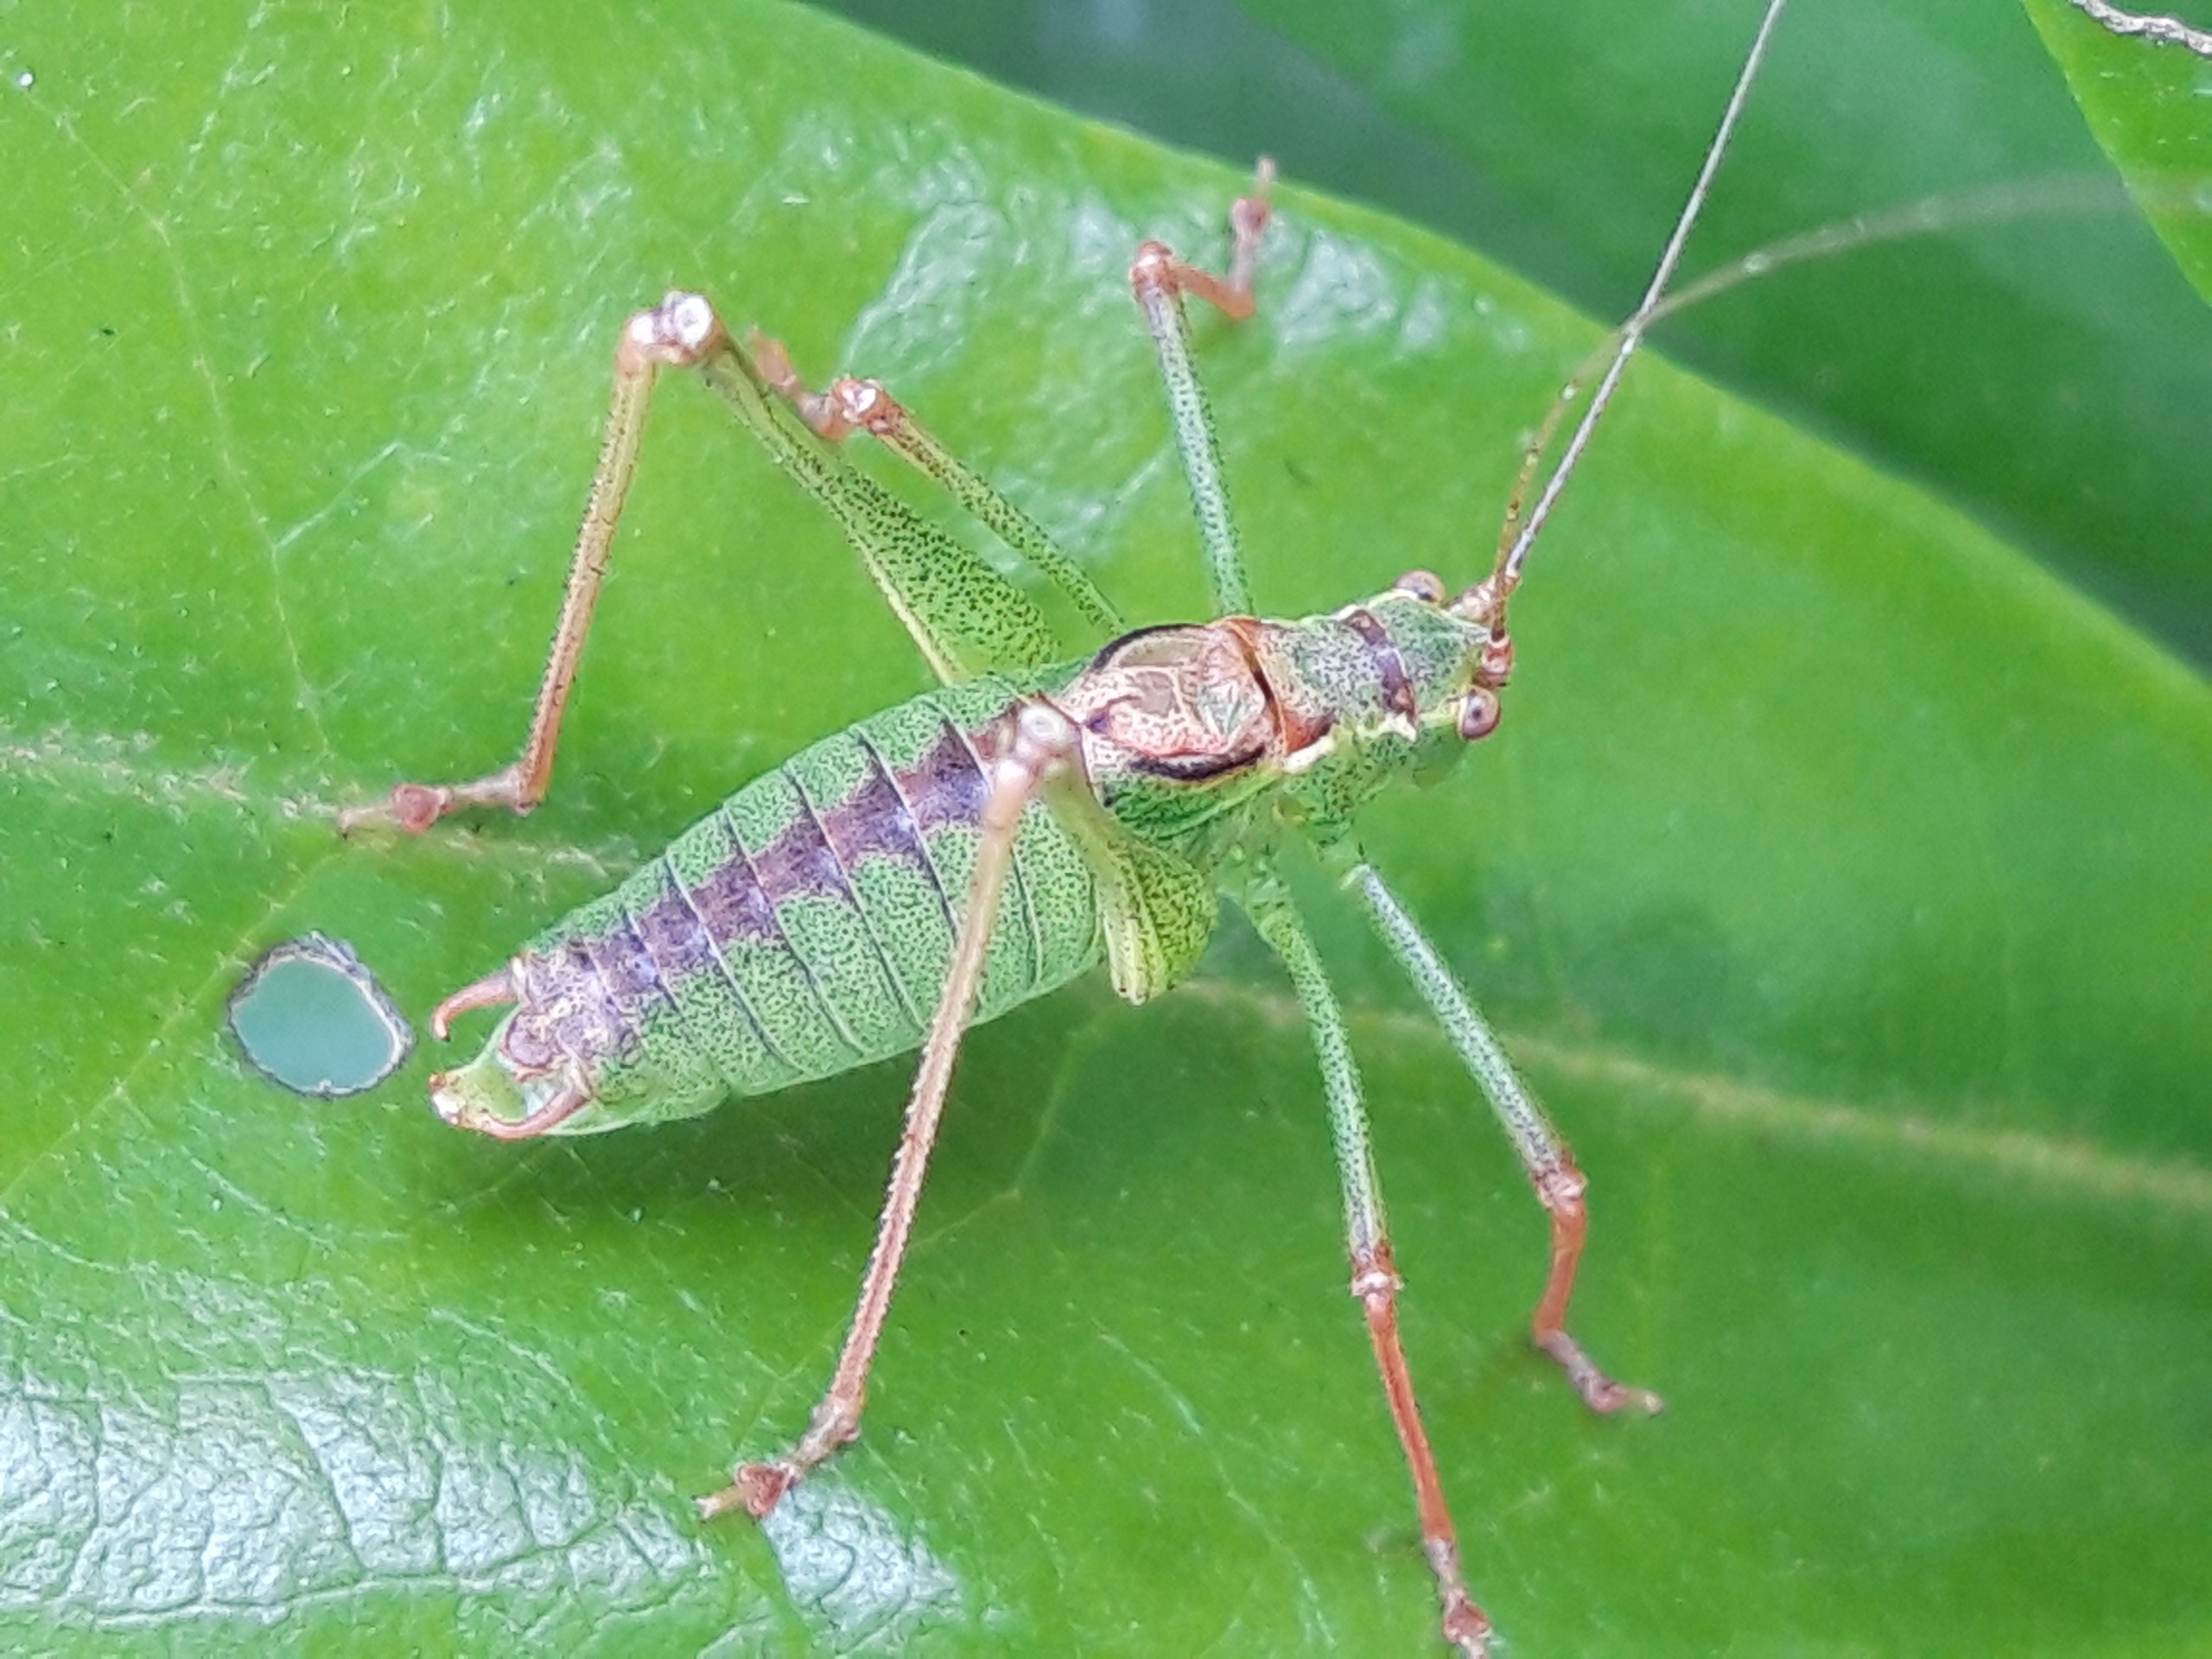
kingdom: Animalia
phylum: Arthropoda
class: Insecta
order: Orthoptera
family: Tettigoniidae
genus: Leptophyes
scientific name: Leptophyes punctatissima
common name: Krumknivgræshoppe
